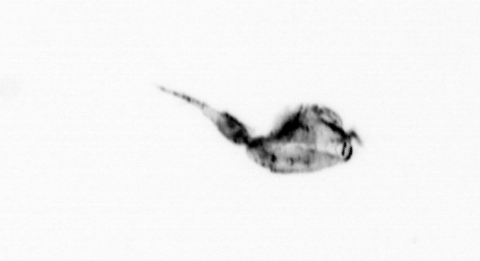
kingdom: Animalia
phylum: Arthropoda
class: Copepoda
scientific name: Copepoda
